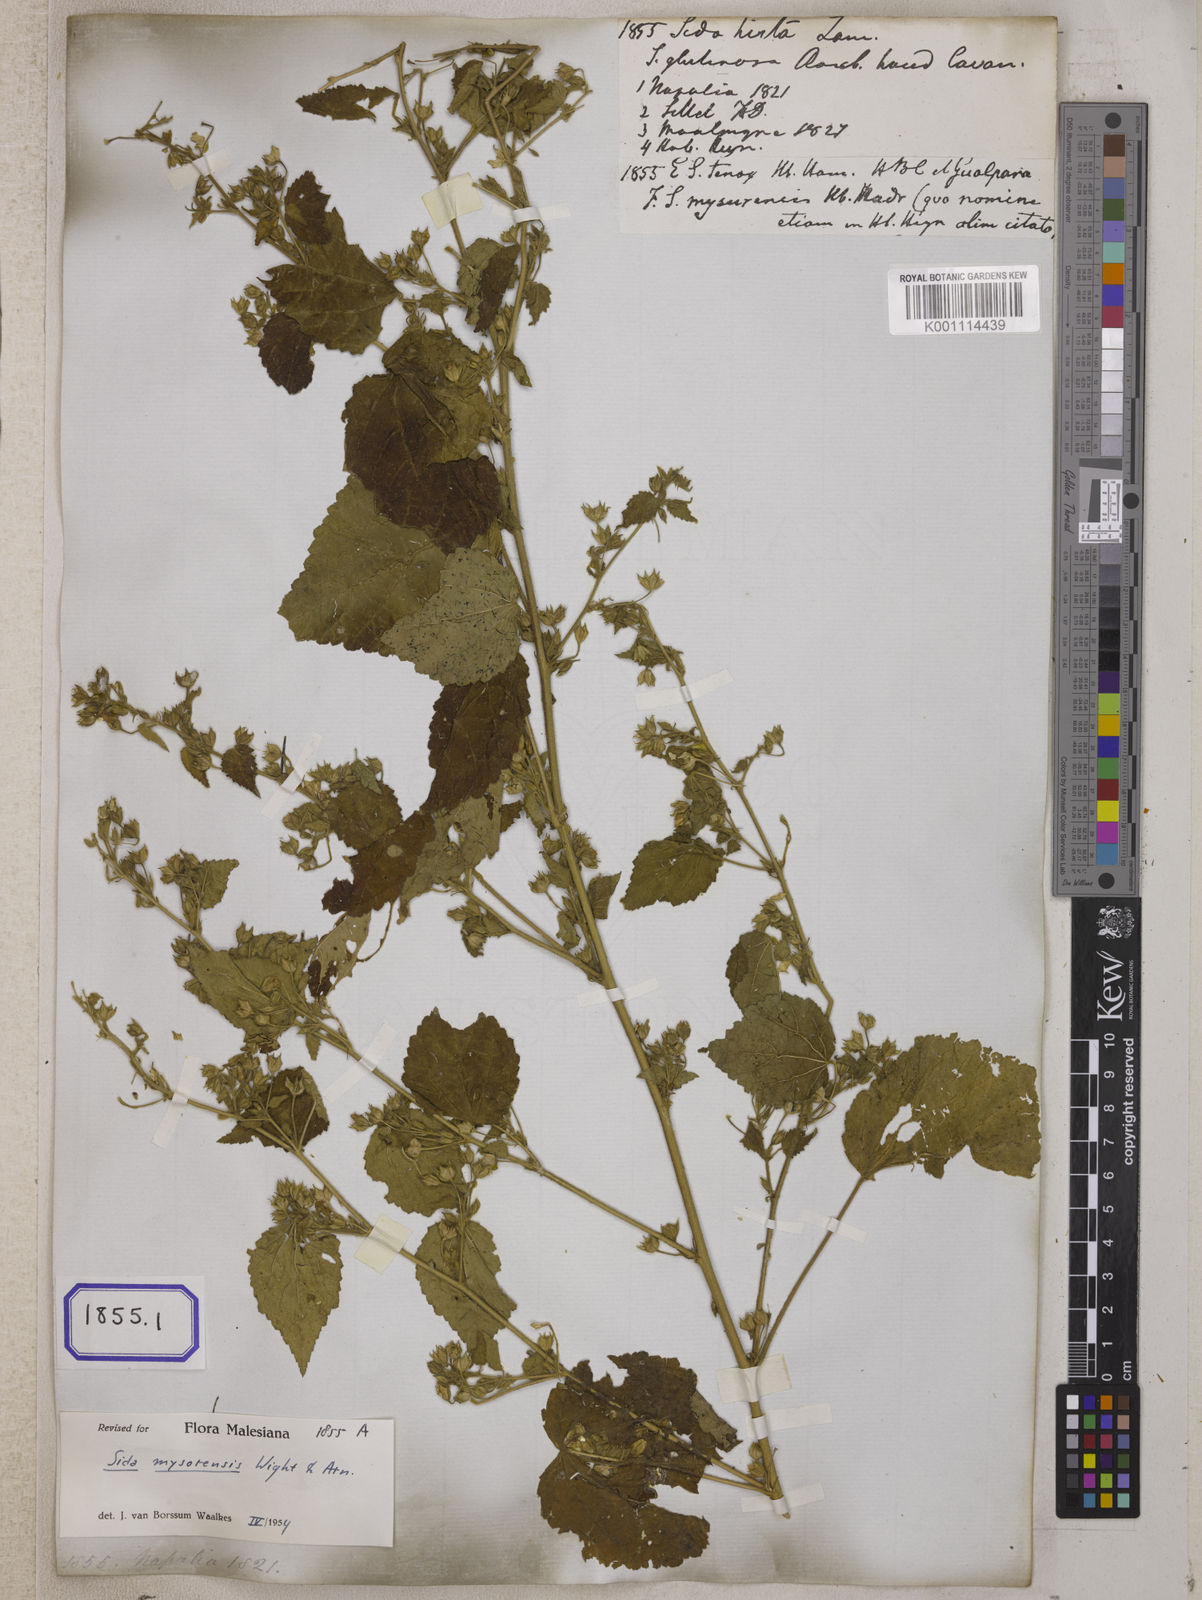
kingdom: Plantae
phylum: Tracheophyta
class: Magnoliopsida
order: Malvales
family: Malvaceae
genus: Abutilon
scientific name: Abutilon hirtum
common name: Florida keys indian mallow
